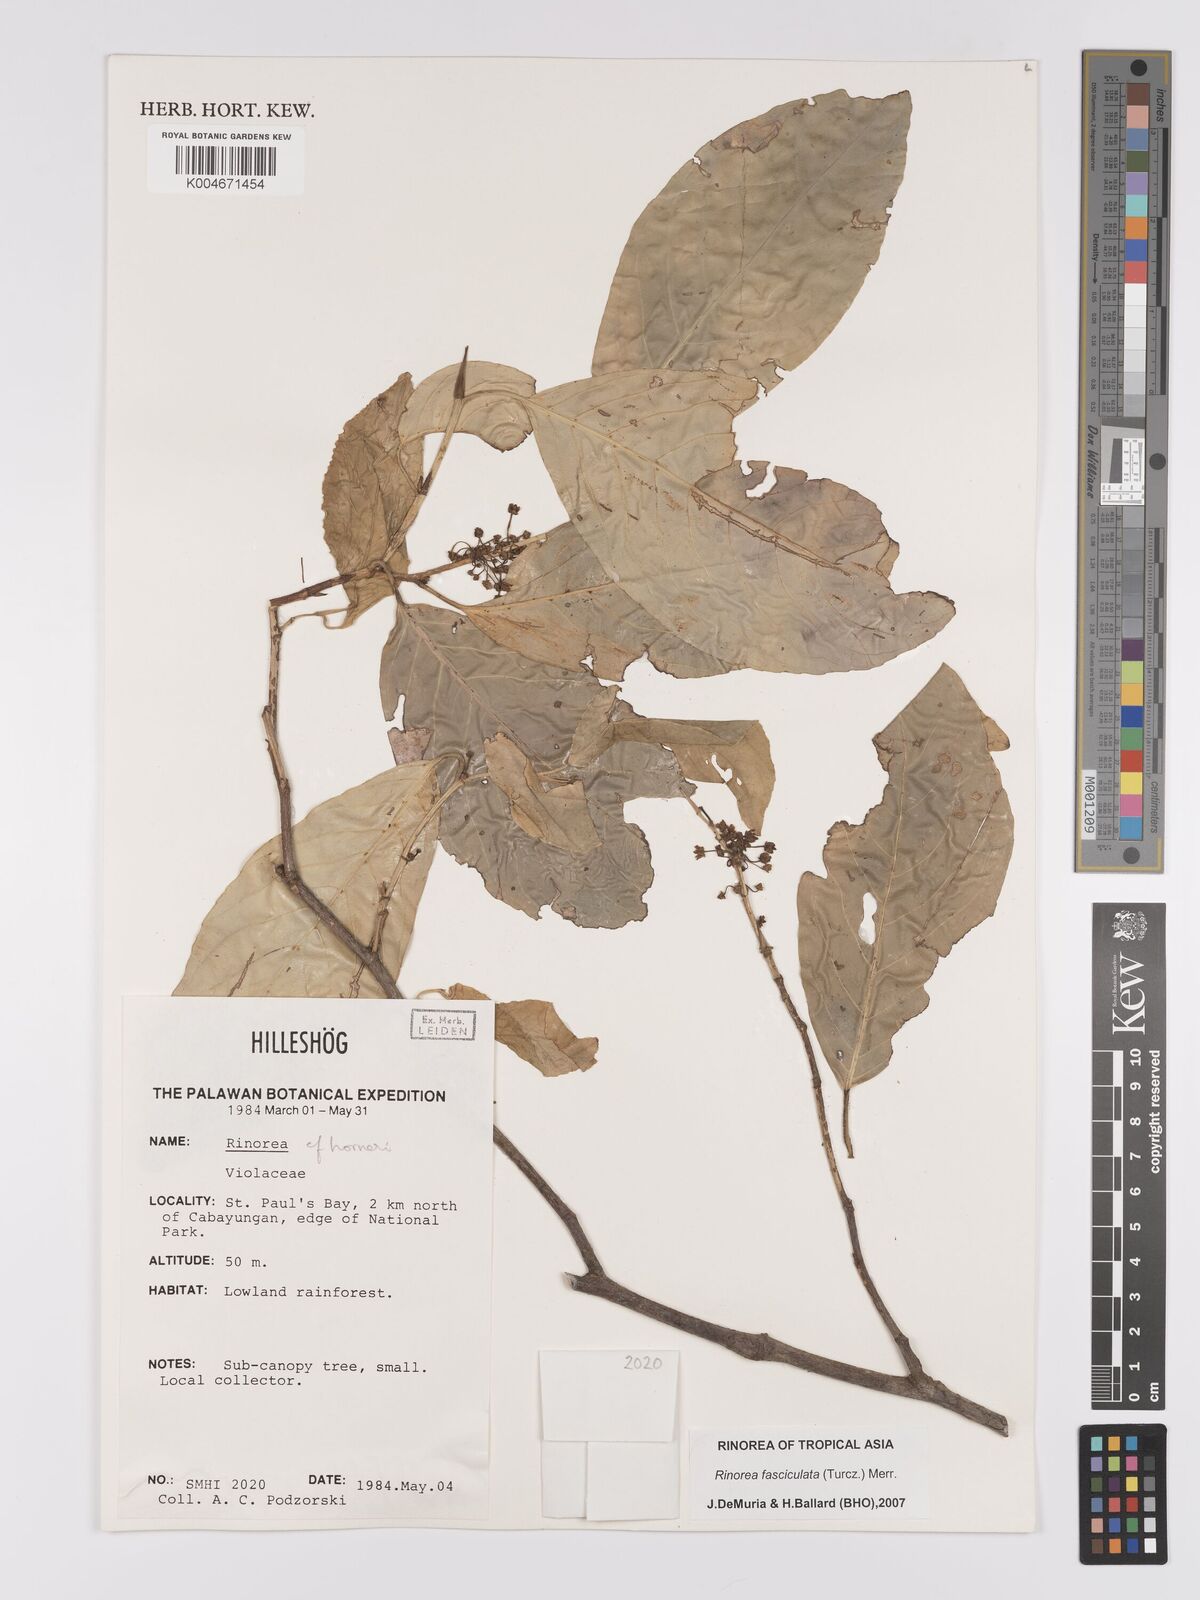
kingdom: Plantae
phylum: Tracheophyta
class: Magnoliopsida
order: Malpighiales
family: Violaceae
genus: Rinorea
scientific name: Rinorea bengalensis
